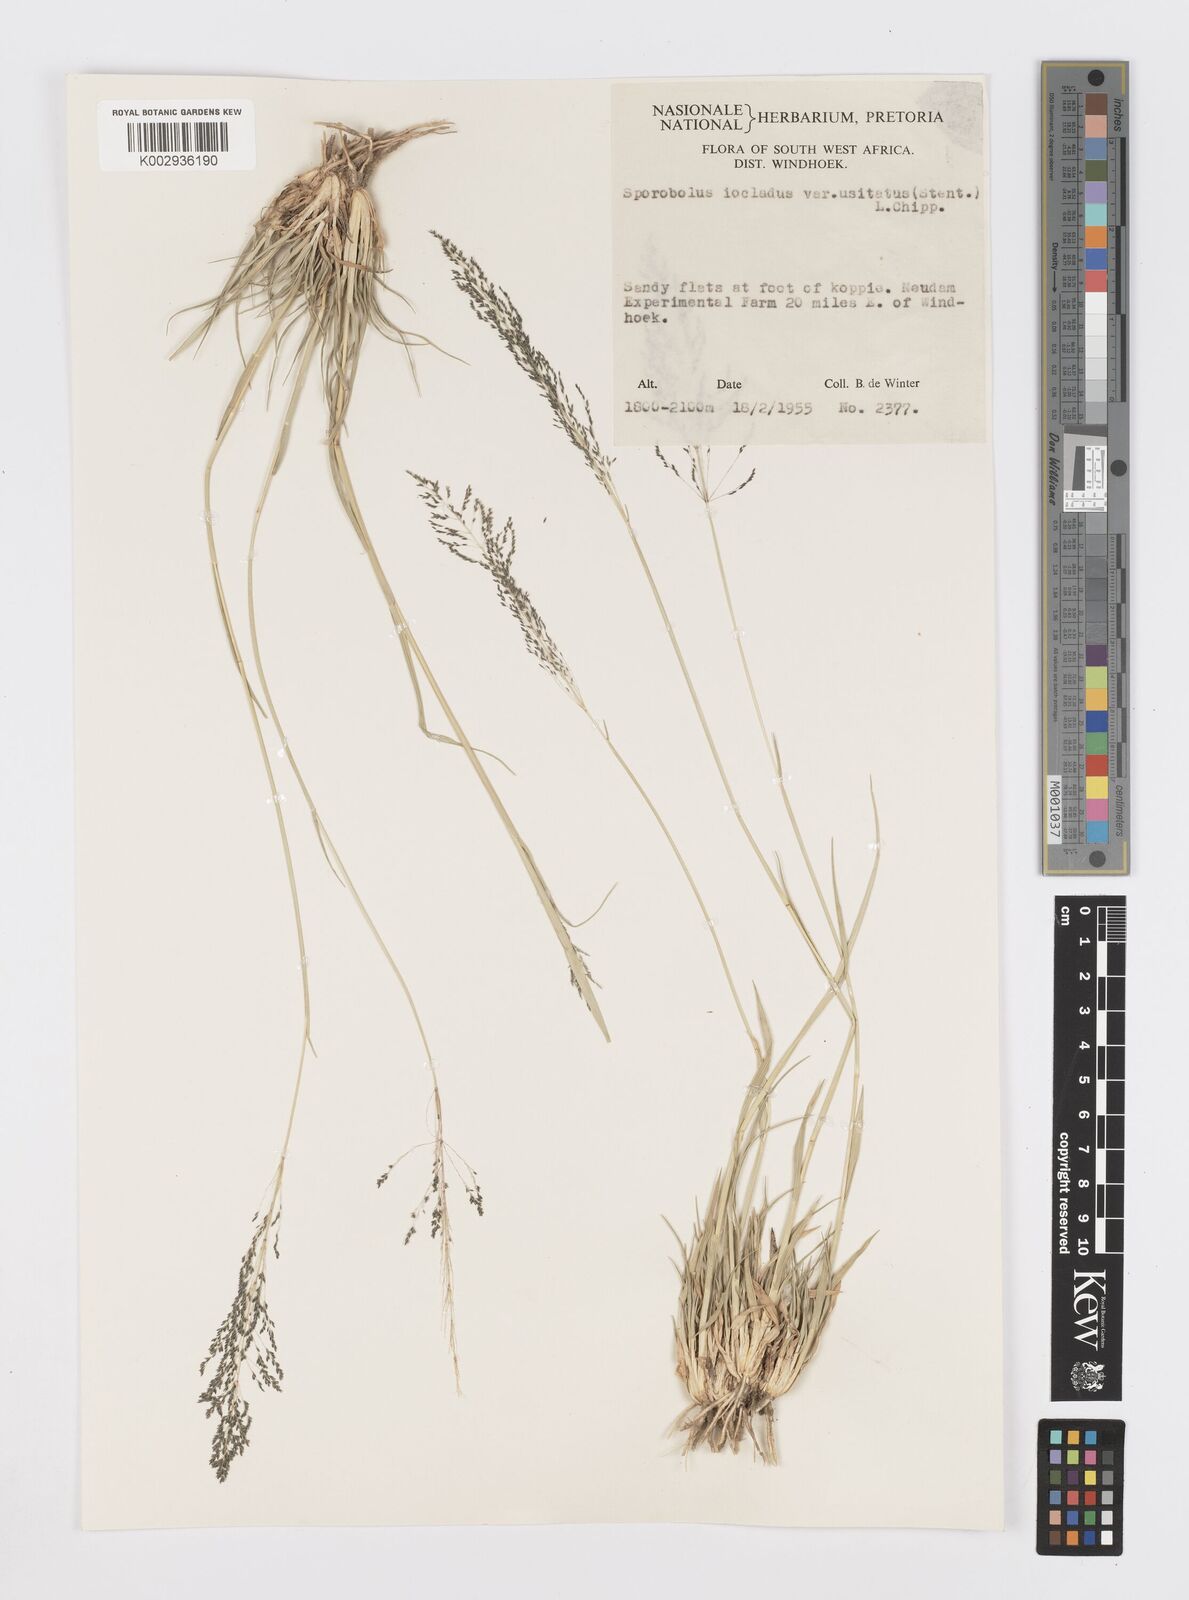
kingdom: Plantae
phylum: Tracheophyta
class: Liliopsida
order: Poales
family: Poaceae
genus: Sporobolus
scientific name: Sporobolus ioclados
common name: Pan dropseed
